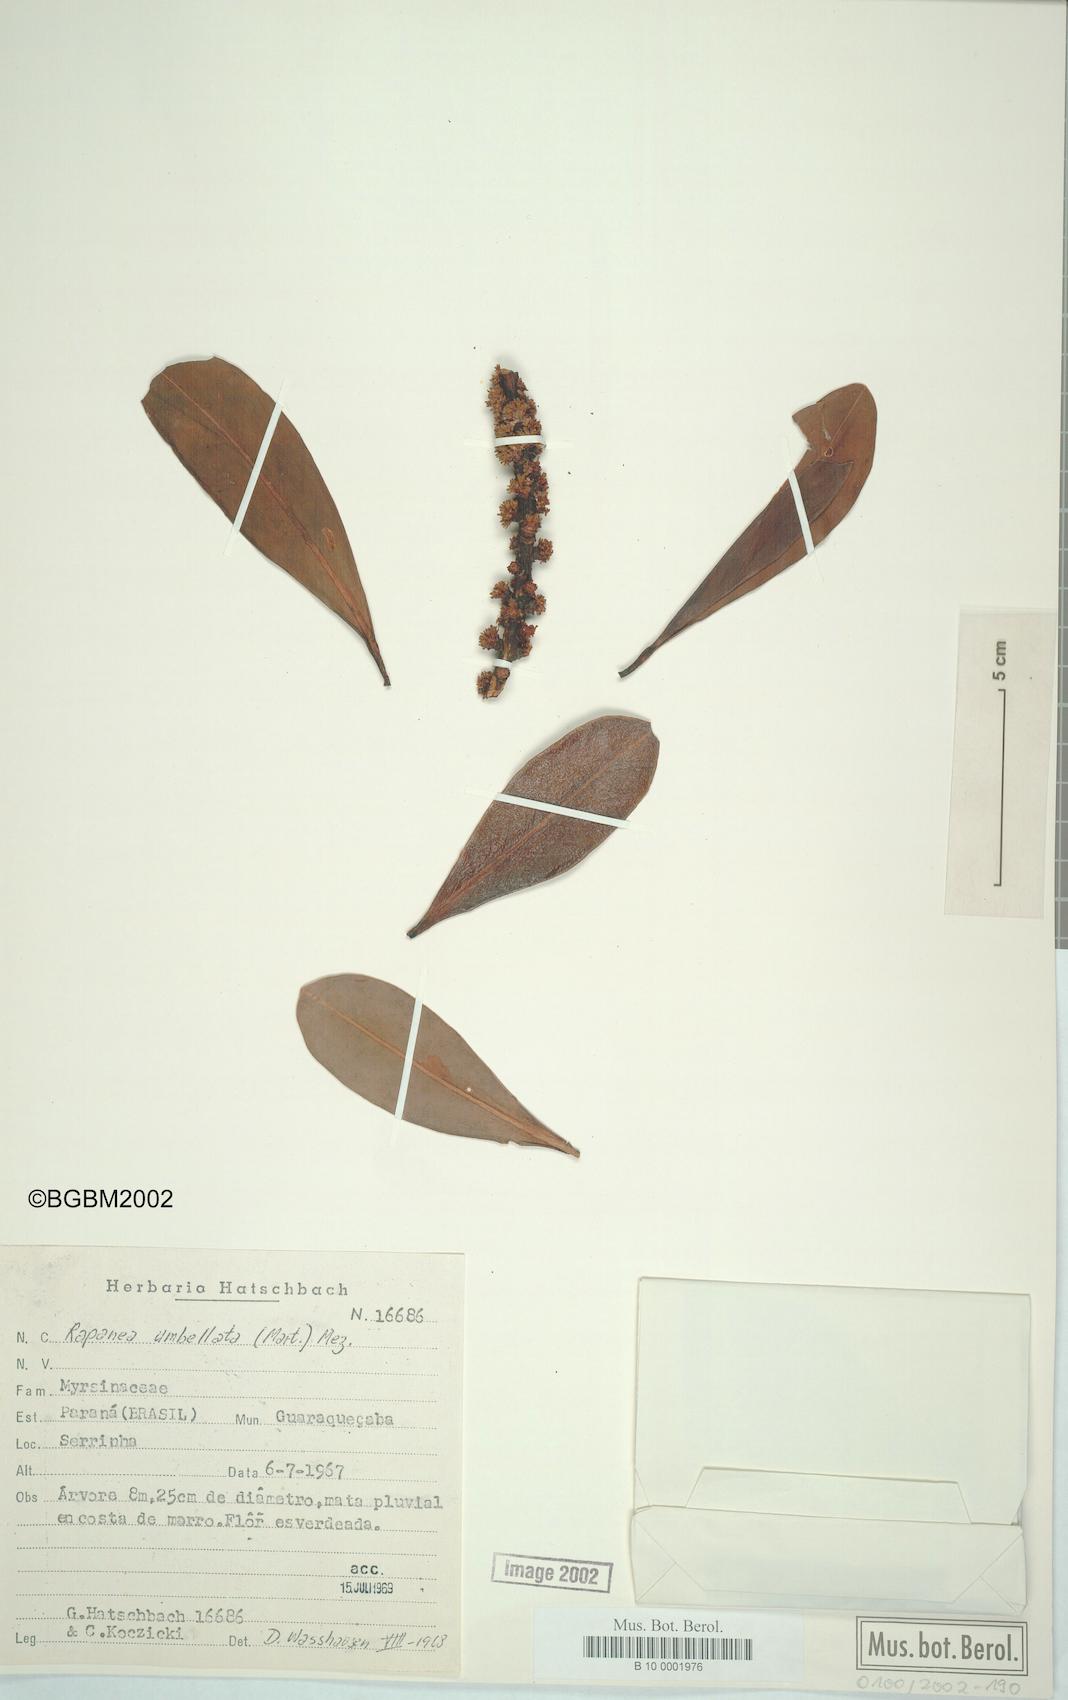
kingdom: Plantae
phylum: Tracheophyta
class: Magnoliopsida
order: Ericales
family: Primulaceae
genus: Myrsine
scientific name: Myrsine umbellata
